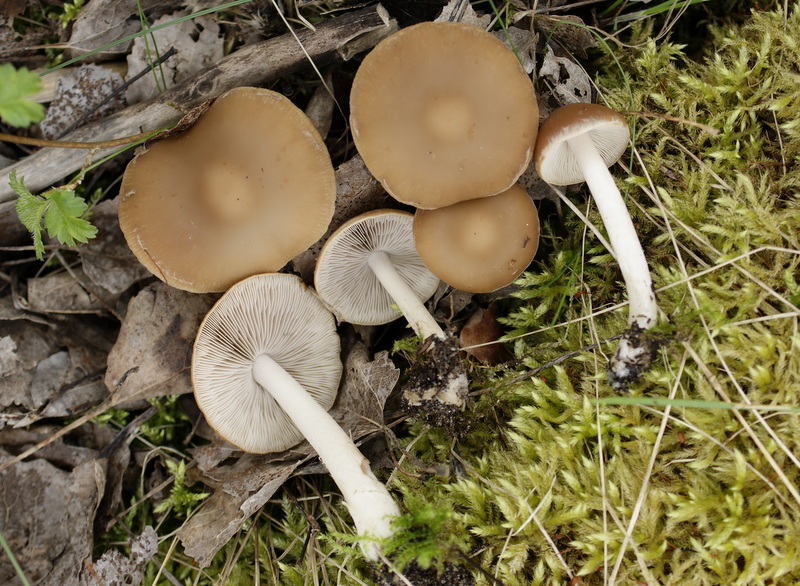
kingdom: Fungi
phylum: Basidiomycota
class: Agaricomycetes
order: Agaricales
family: Psathyrellaceae
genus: Psathyrella
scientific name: Psathyrella spadiceogrisea
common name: gråbrun mørkhat
